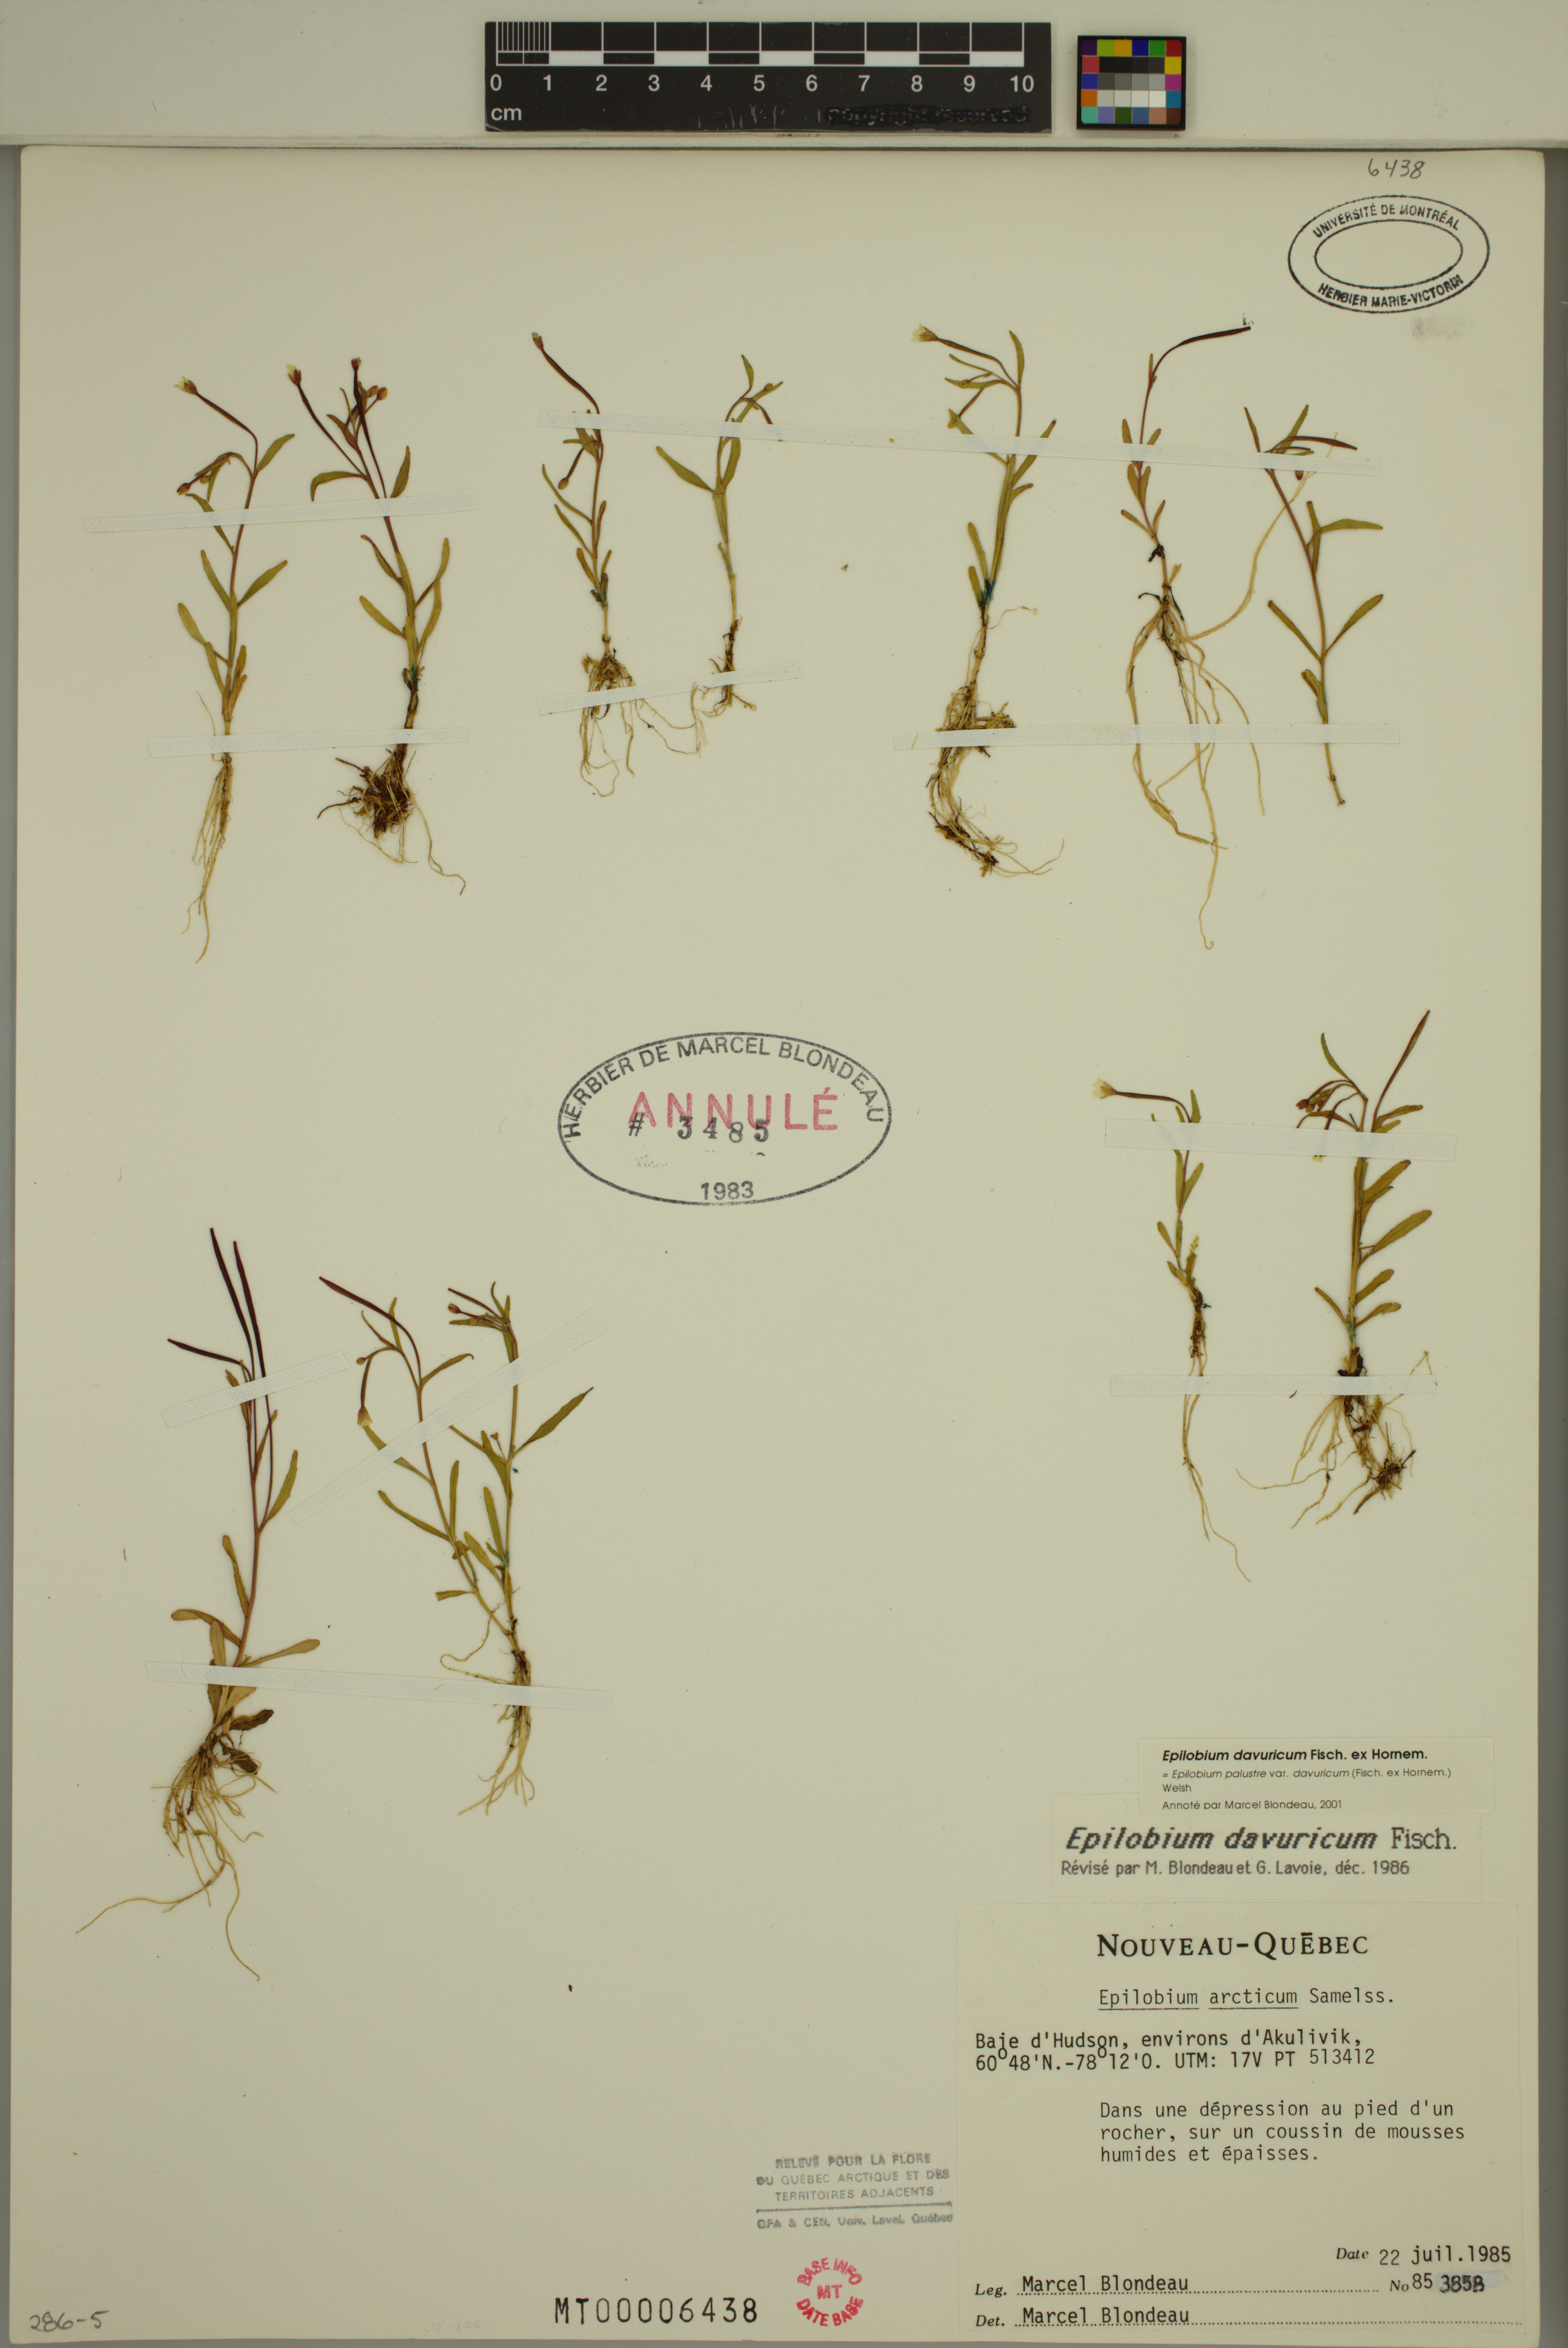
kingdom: Plantae
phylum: Tracheophyta
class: Magnoliopsida
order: Myrtales
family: Onagraceae
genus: Epilobium
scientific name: Epilobium davuricum
